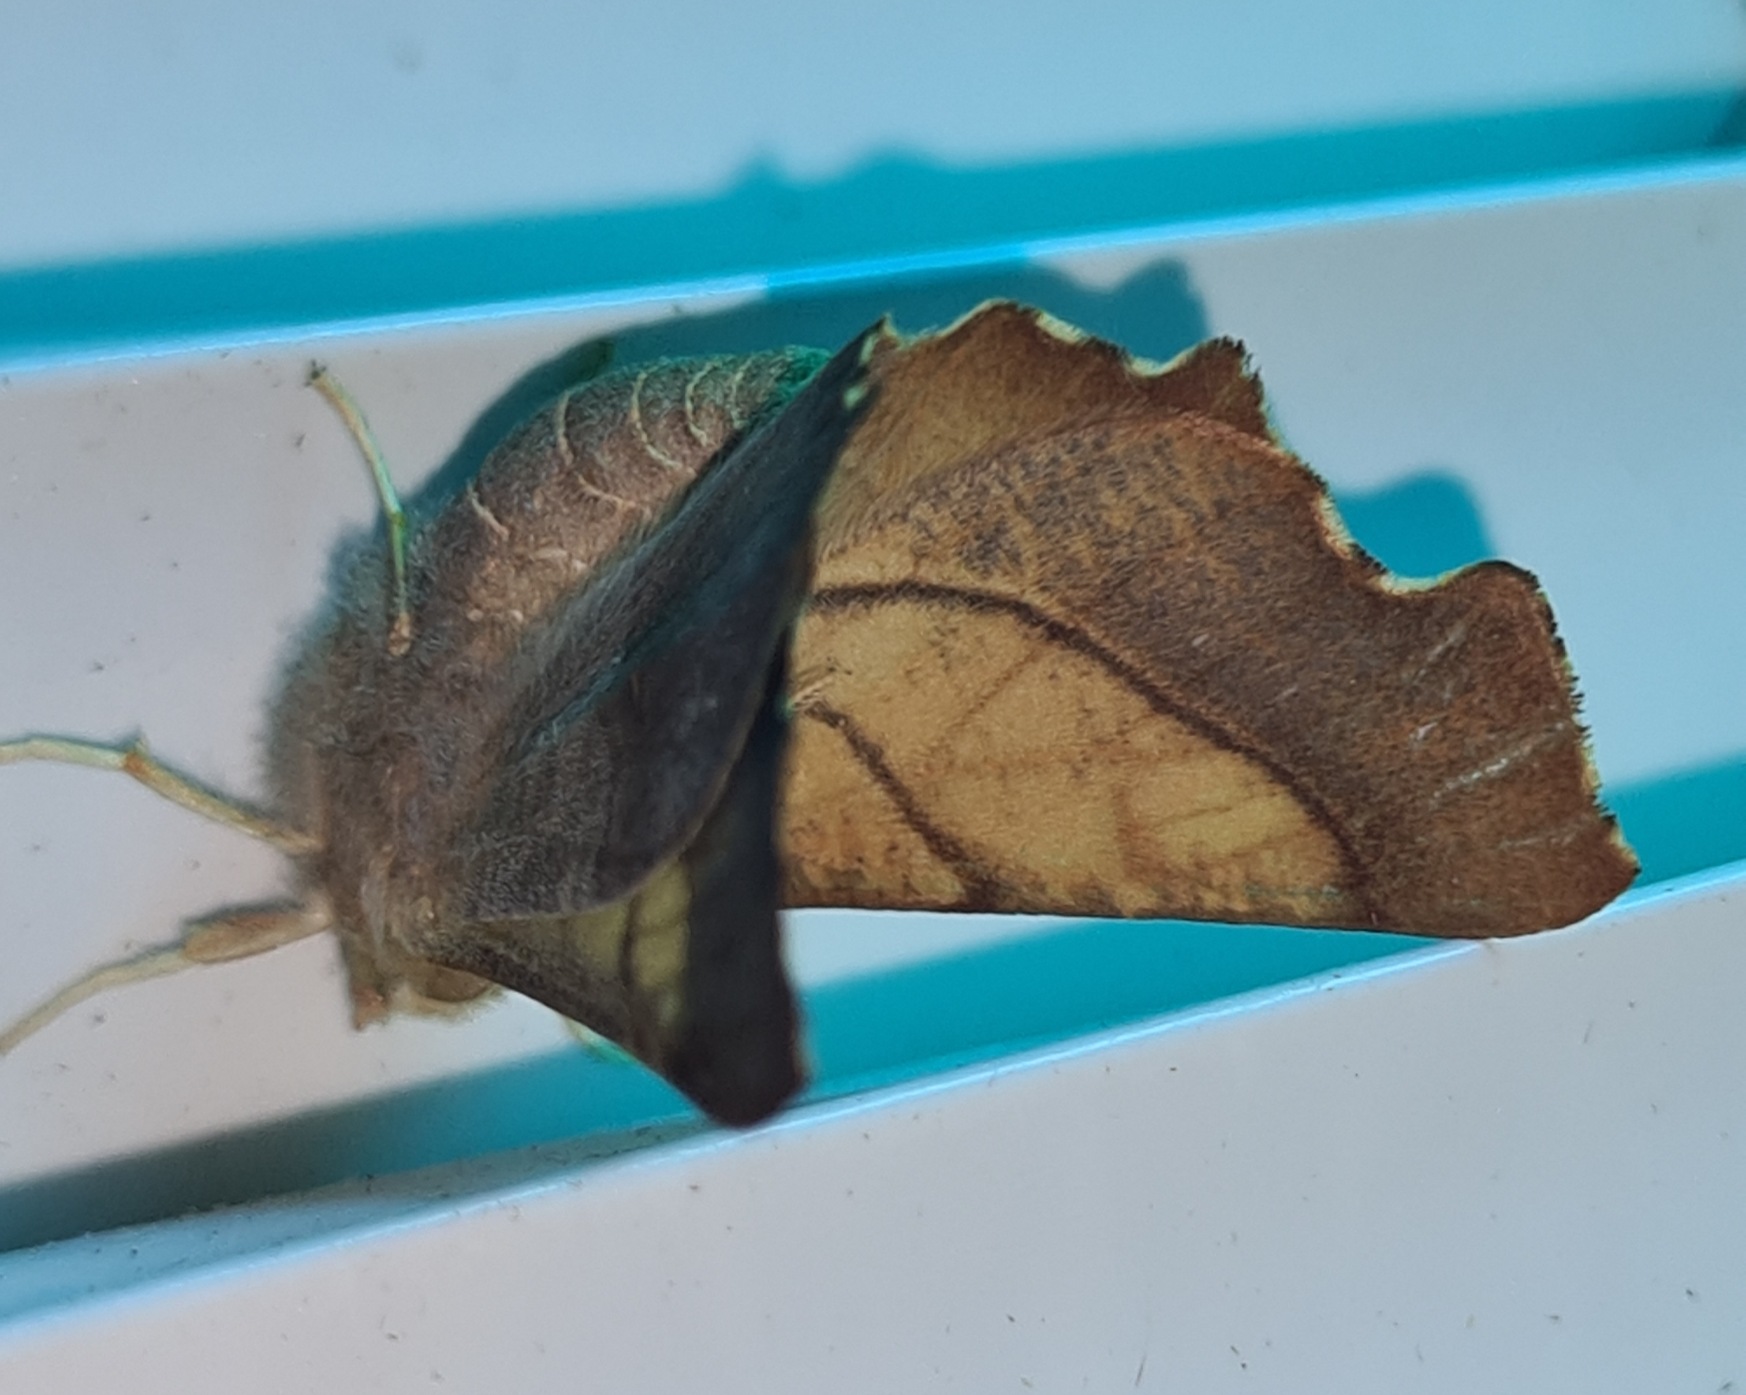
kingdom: Animalia
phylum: Arthropoda
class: Insecta
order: Lepidoptera
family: Geometridae
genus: Ennomos
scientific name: Ennomos fuscantaria
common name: Asketandmåler
